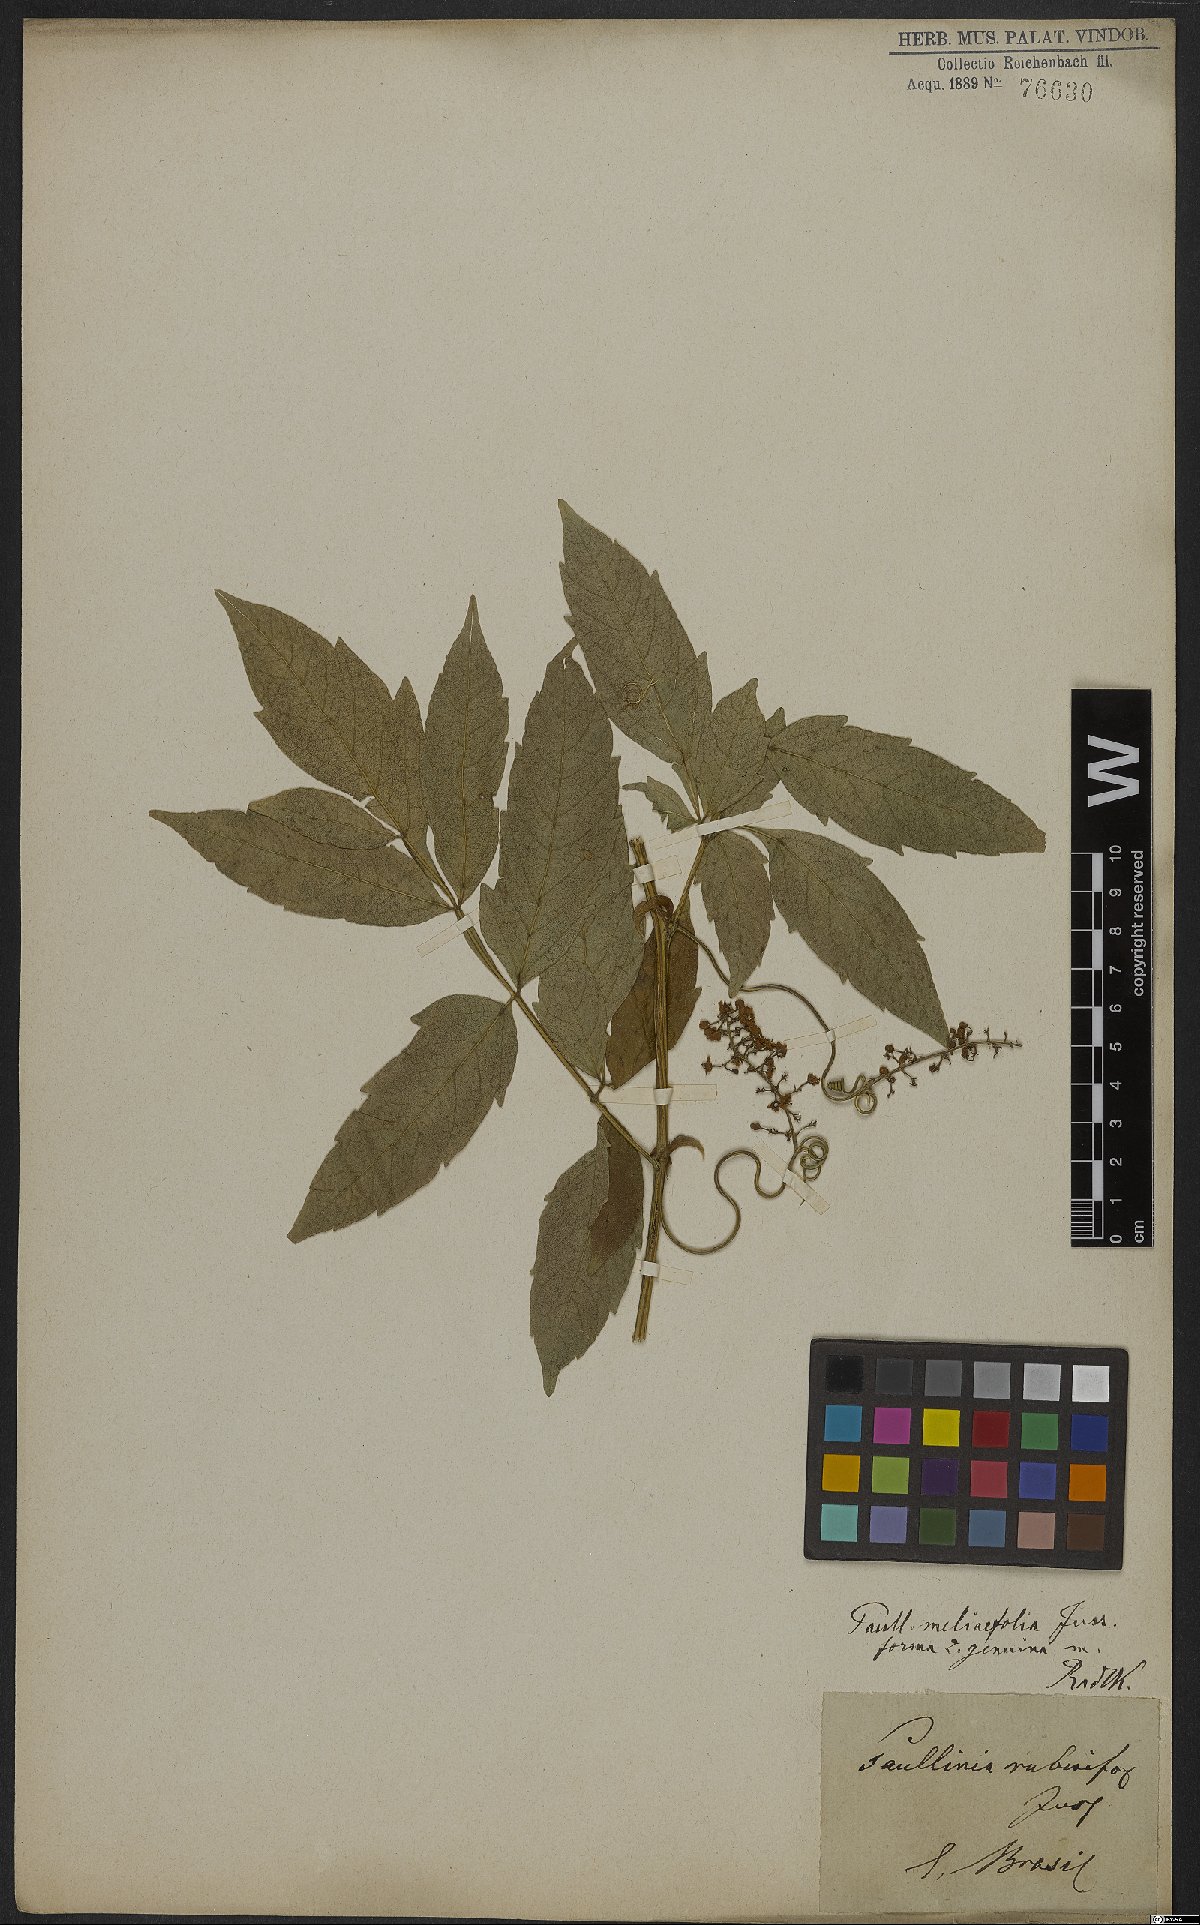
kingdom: Plantae
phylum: Tracheophyta
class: Magnoliopsida
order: Sapindales
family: Sapindaceae
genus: Paullinia
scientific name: Paullinia meliifolia
